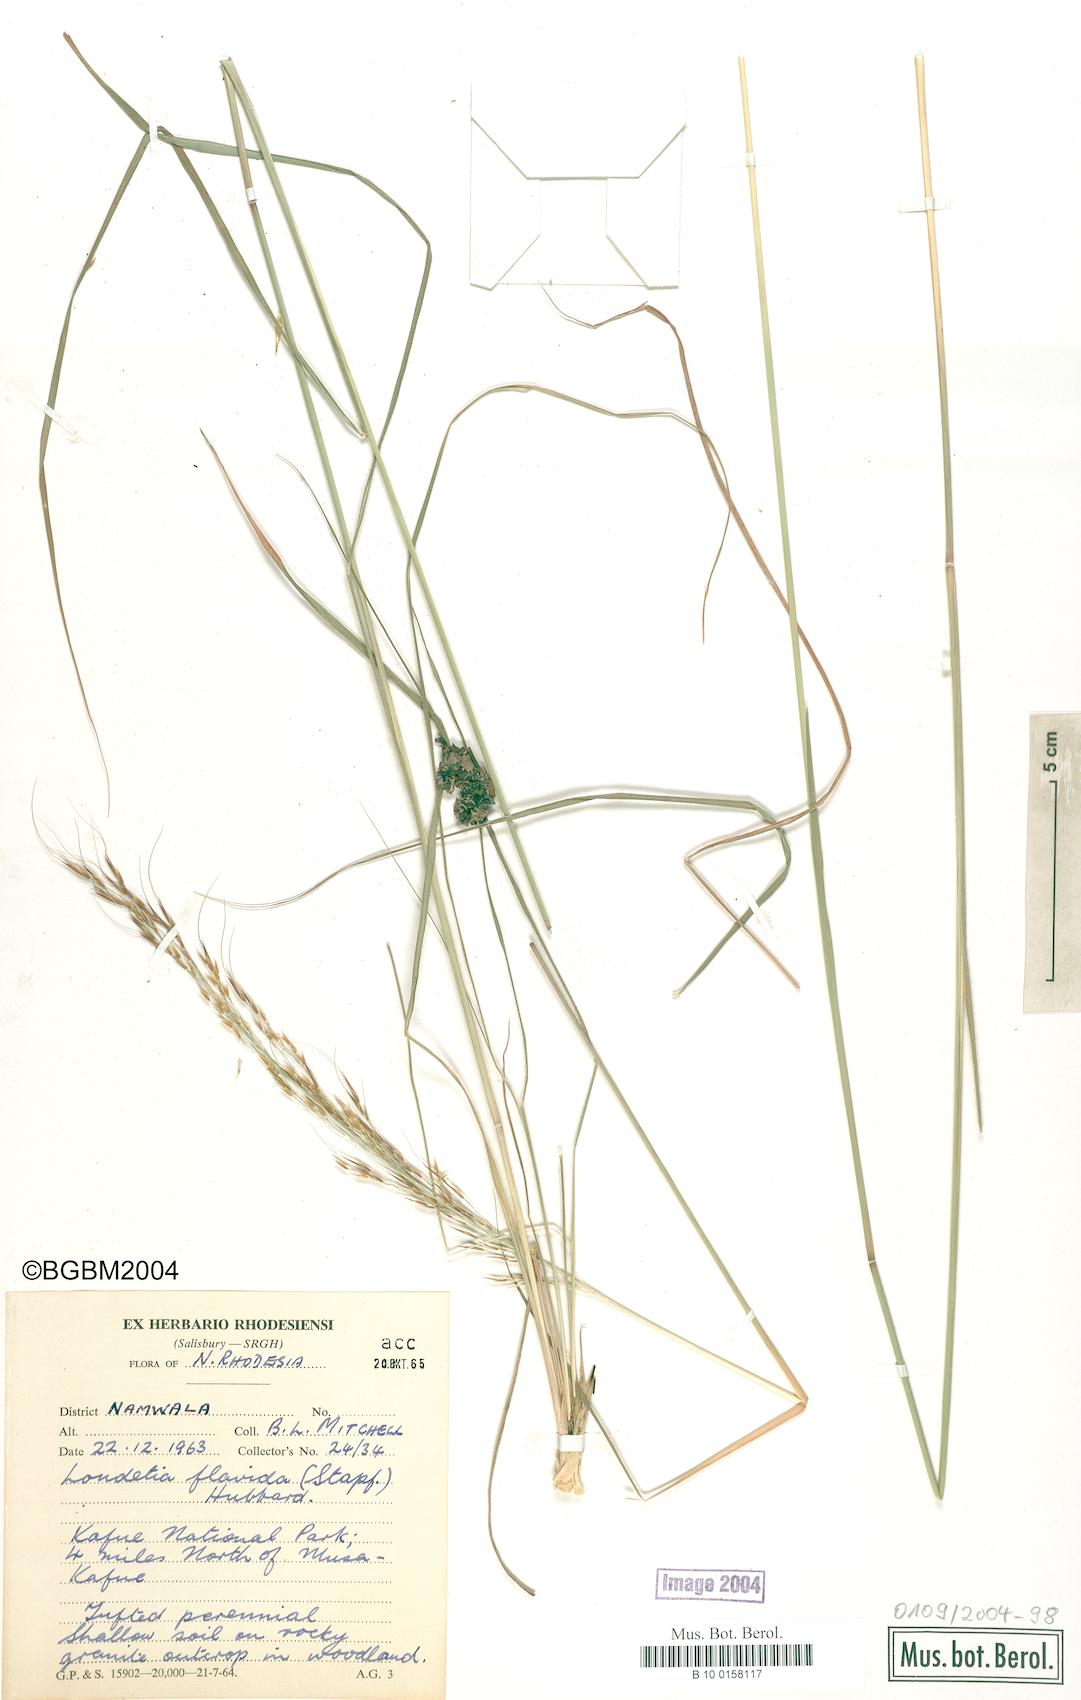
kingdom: Plantae
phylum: Tracheophyta
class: Liliopsida
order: Poales
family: Poaceae
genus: Loudetia
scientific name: Loudetia flavida
